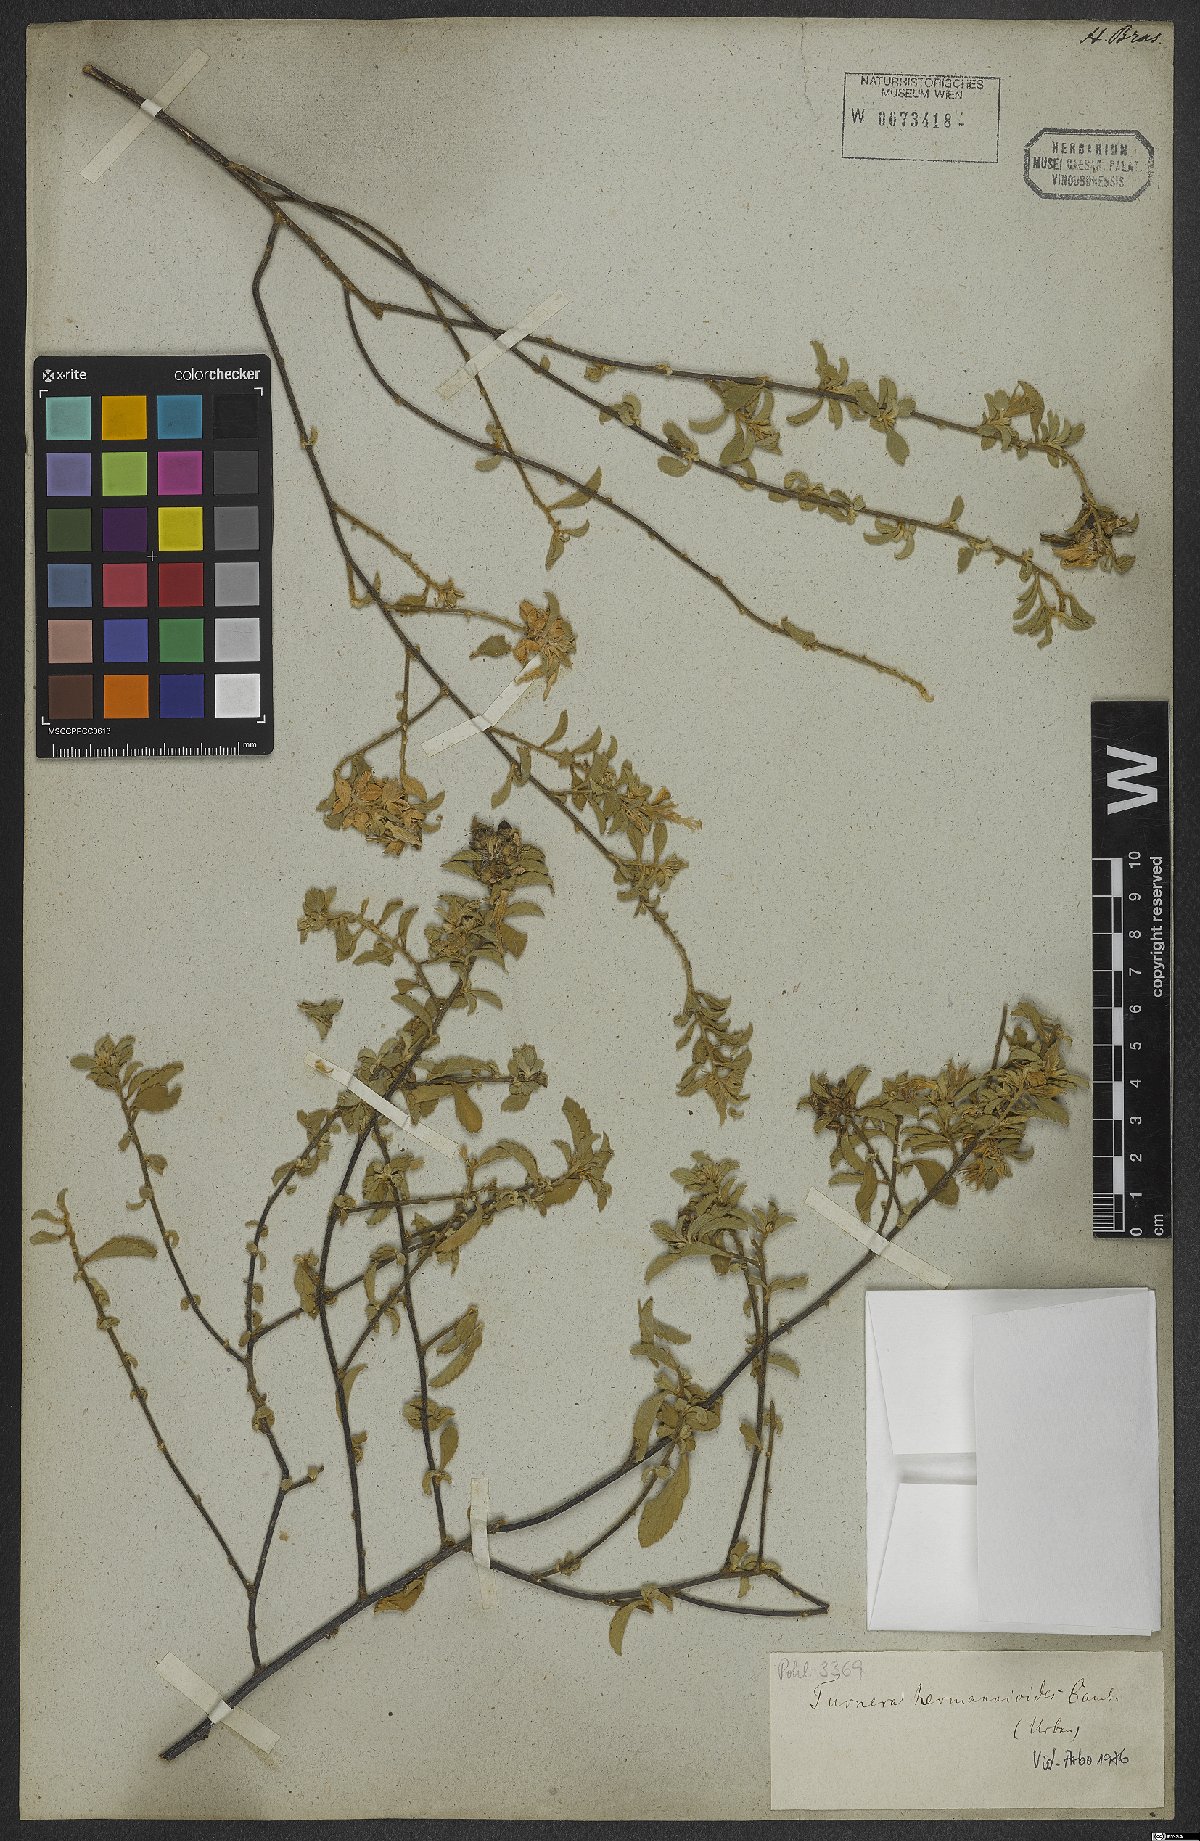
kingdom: Plantae
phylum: Tracheophyta
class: Magnoliopsida
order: Malpighiales
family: Turneraceae
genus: Turnera
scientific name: Turnera hermannioides
